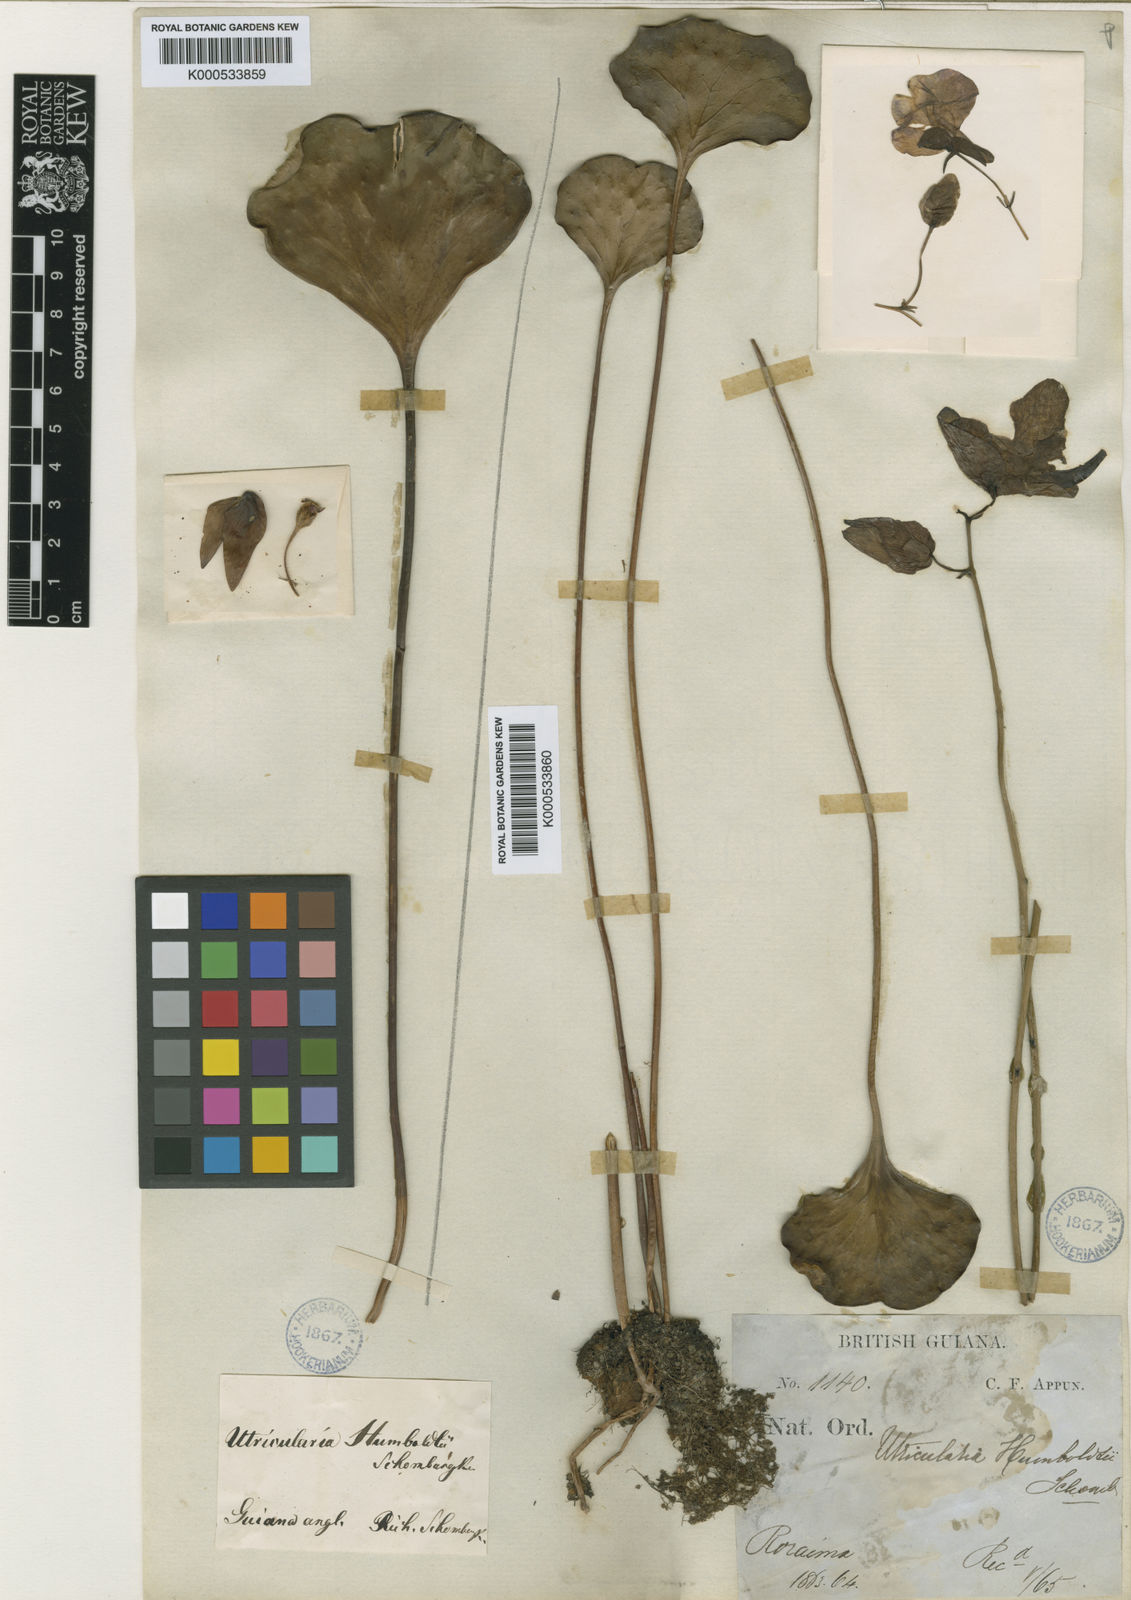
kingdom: Plantae
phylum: Tracheophyta
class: Magnoliopsida
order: Lamiales
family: Lentibulariaceae
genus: Utricularia
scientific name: Utricularia humboldtii
